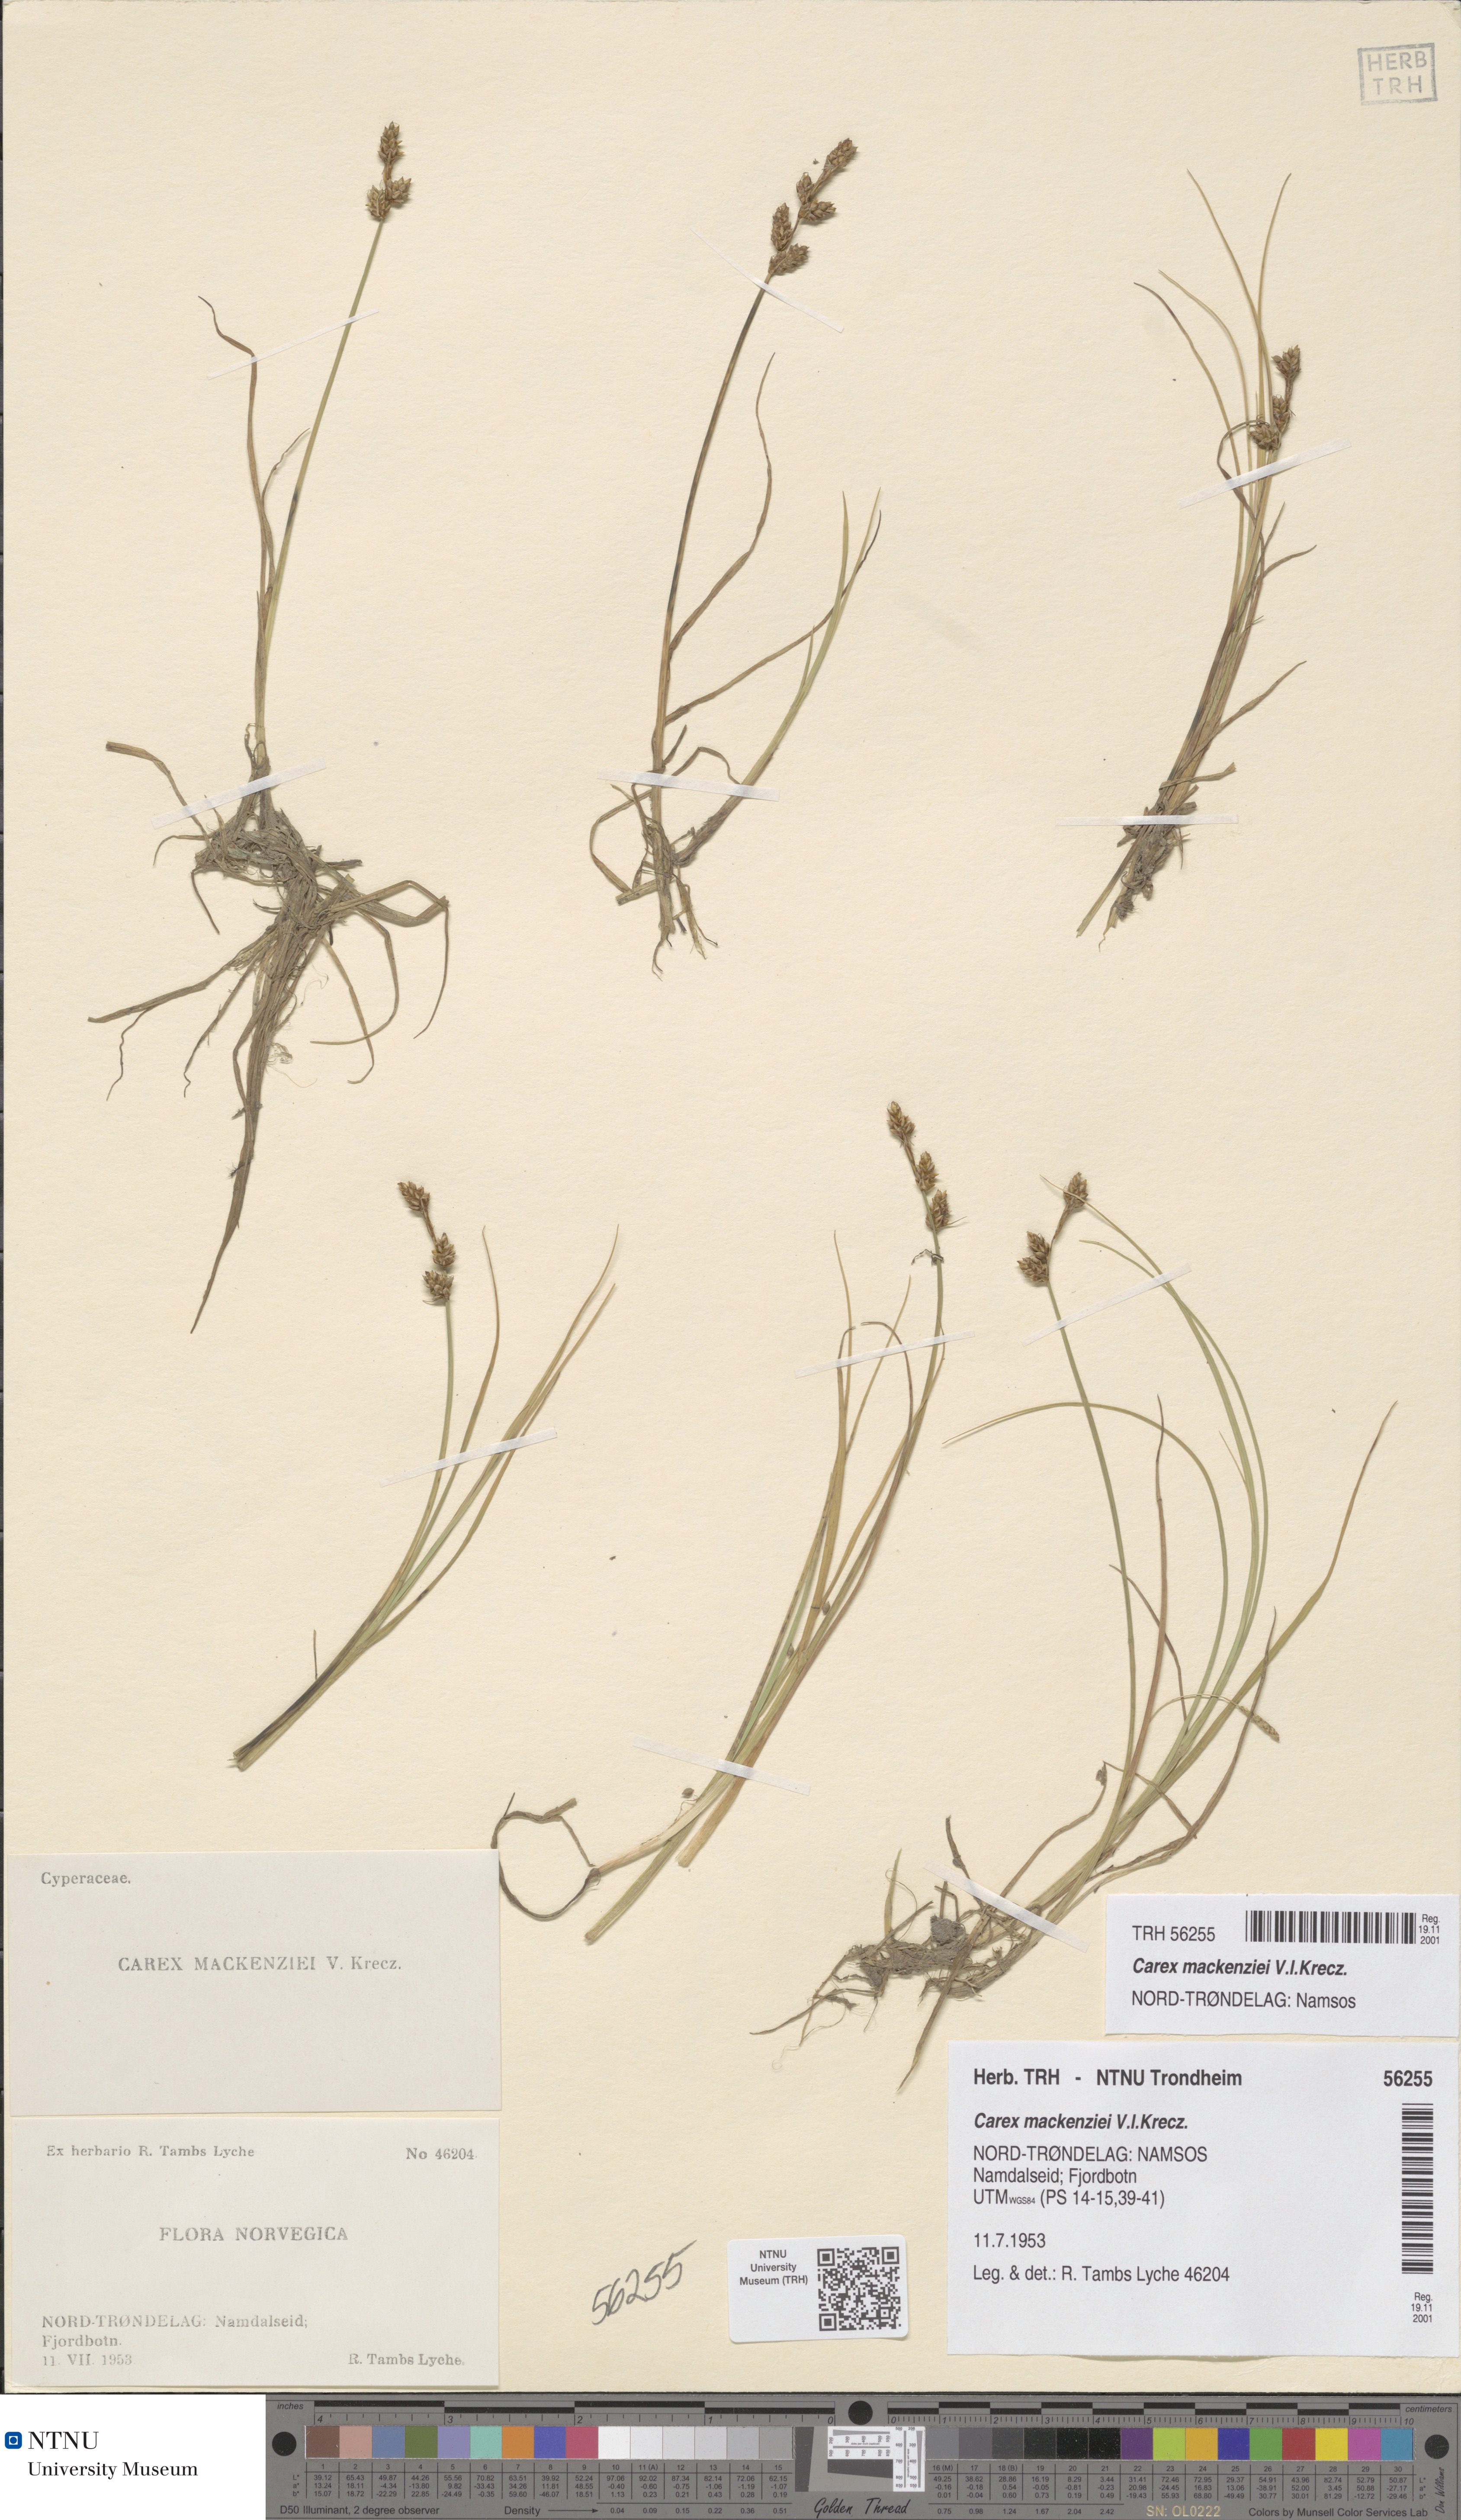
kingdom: Plantae
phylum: Tracheophyta
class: Liliopsida
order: Poales
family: Cyperaceae
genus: Carex
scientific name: Carex mackenziei
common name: Mackenzie's sedge
